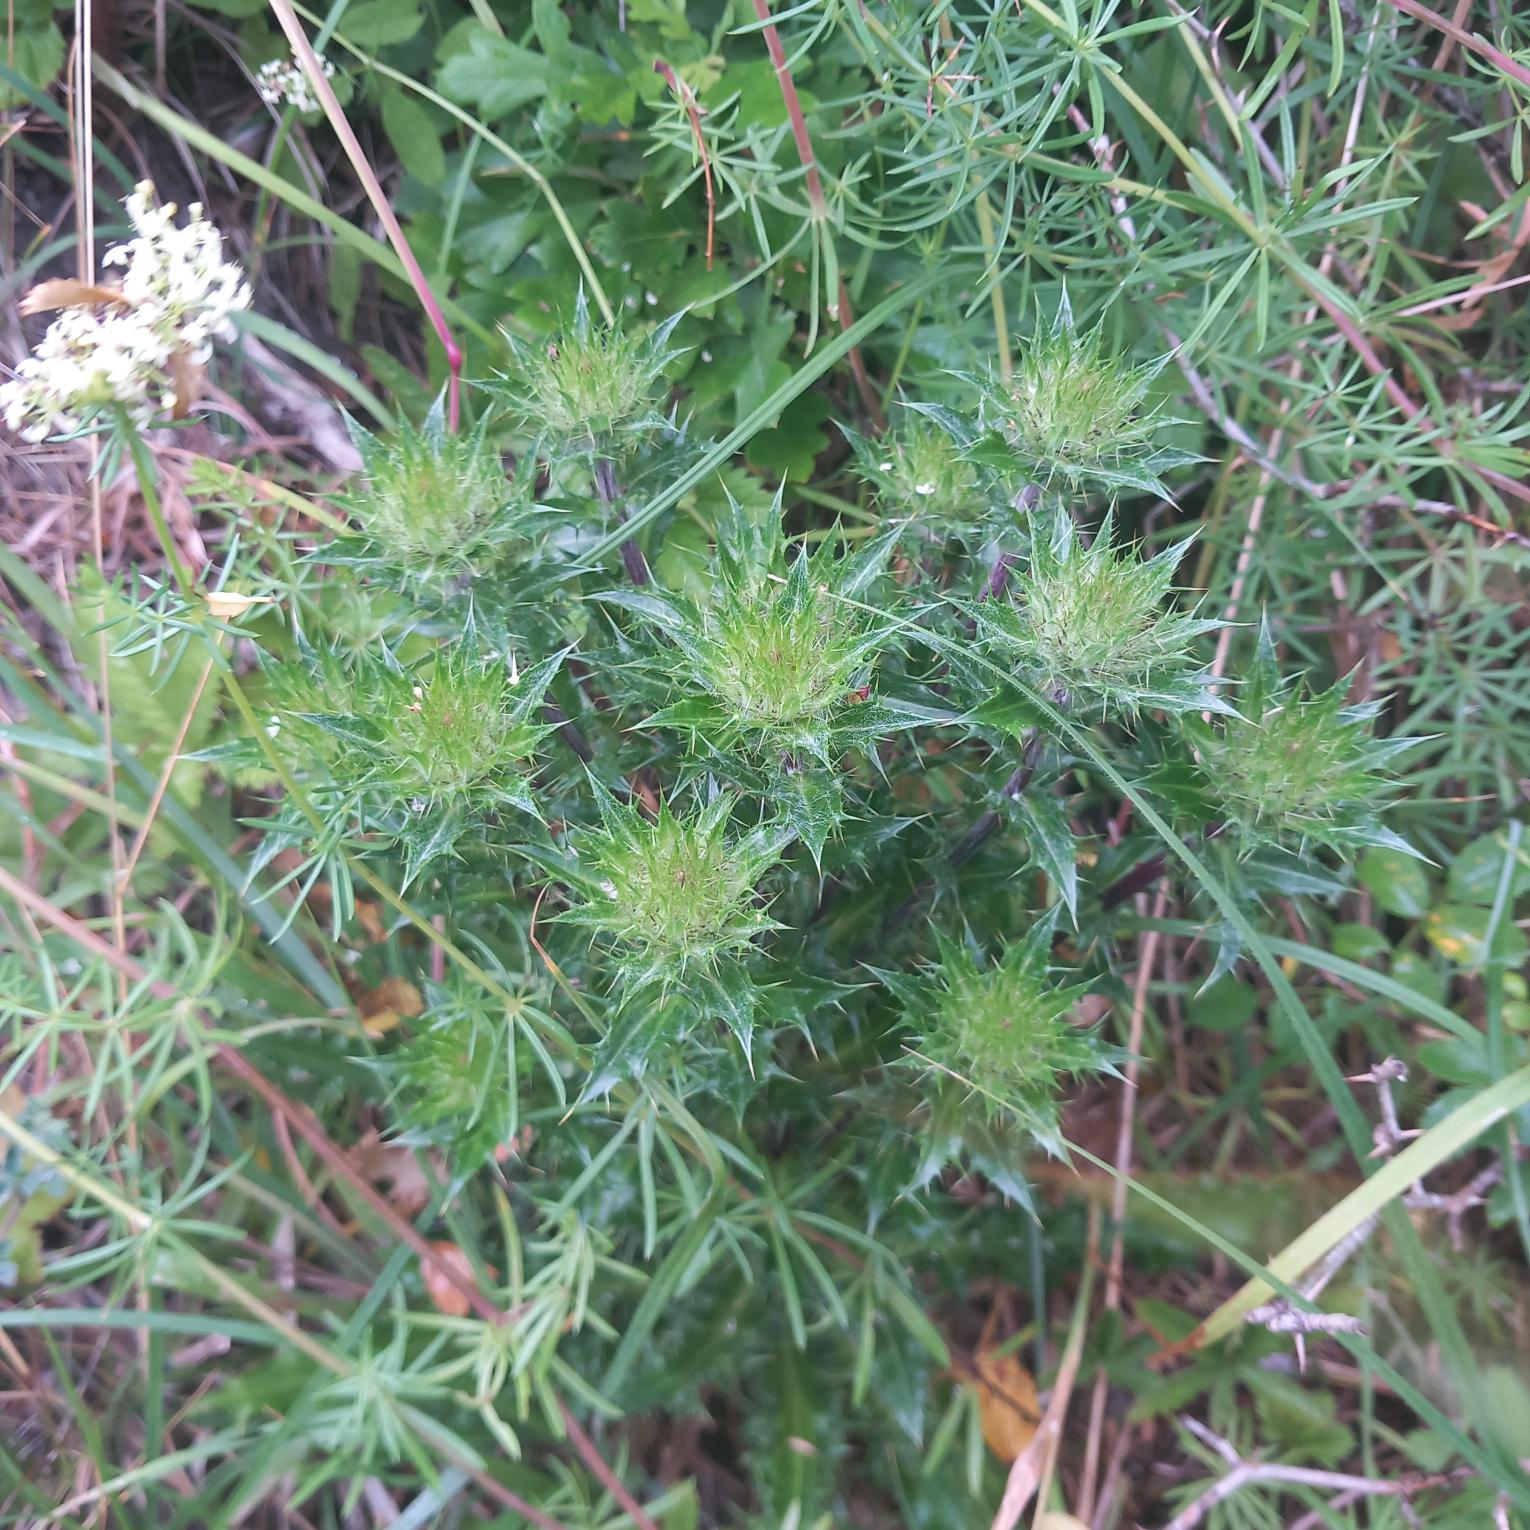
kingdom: Plantae
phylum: Tracheophyta
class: Magnoliopsida
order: Asterales
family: Asteraceae
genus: Carlina
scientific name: Carlina vulgaris
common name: Bakketidsel
